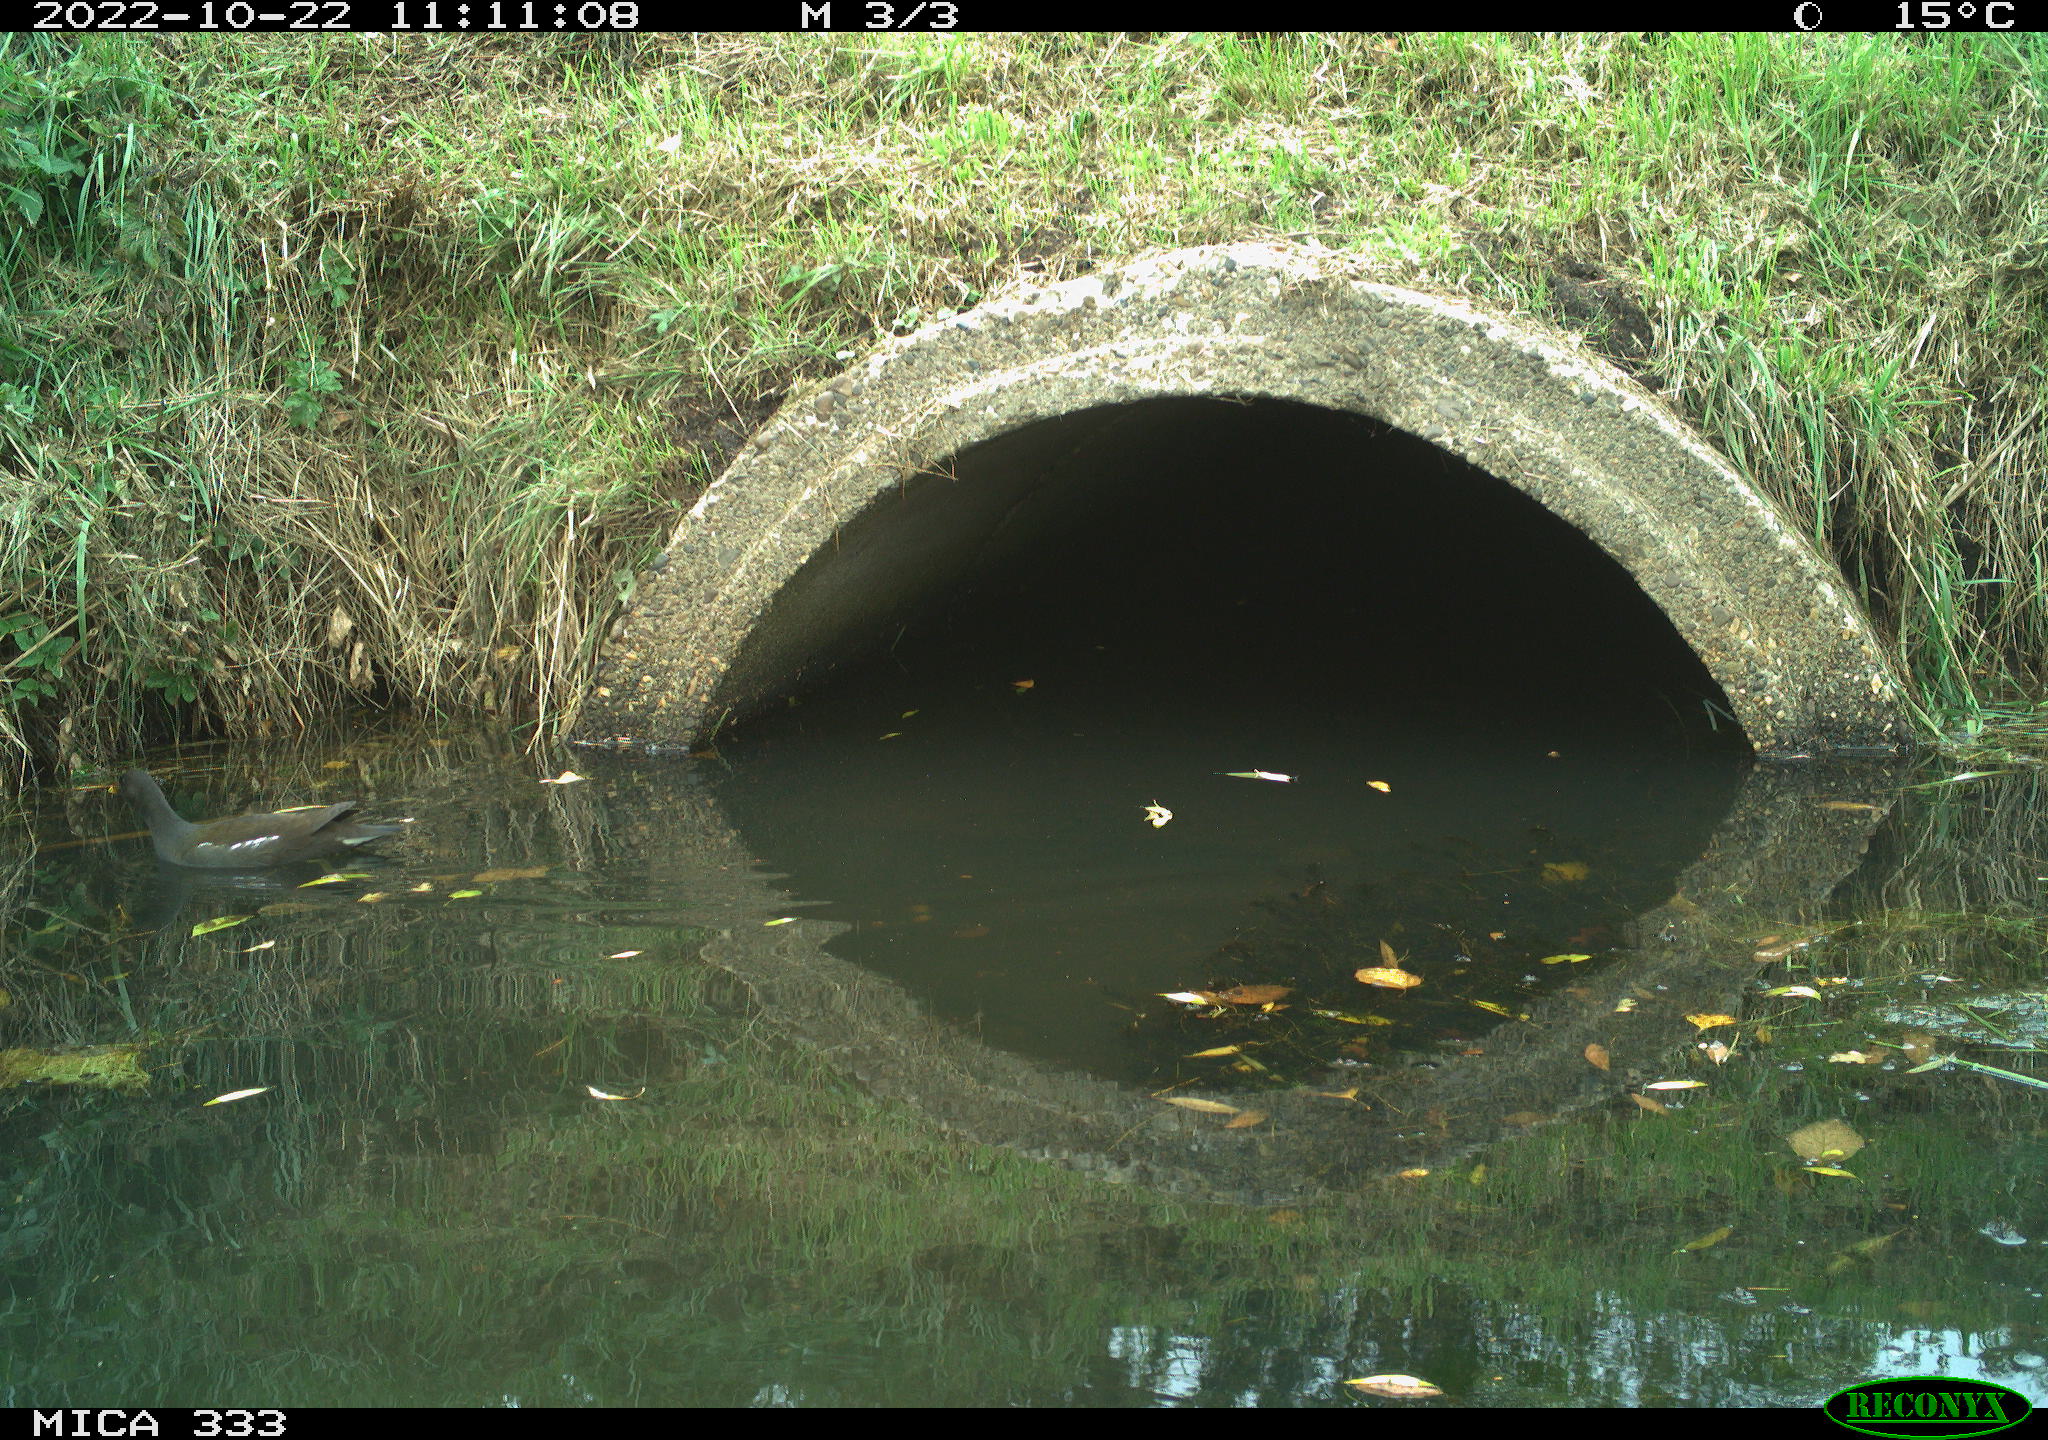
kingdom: Animalia
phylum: Chordata
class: Aves
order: Gruiformes
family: Rallidae
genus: Gallinula
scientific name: Gallinula chloropus
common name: Common moorhen
